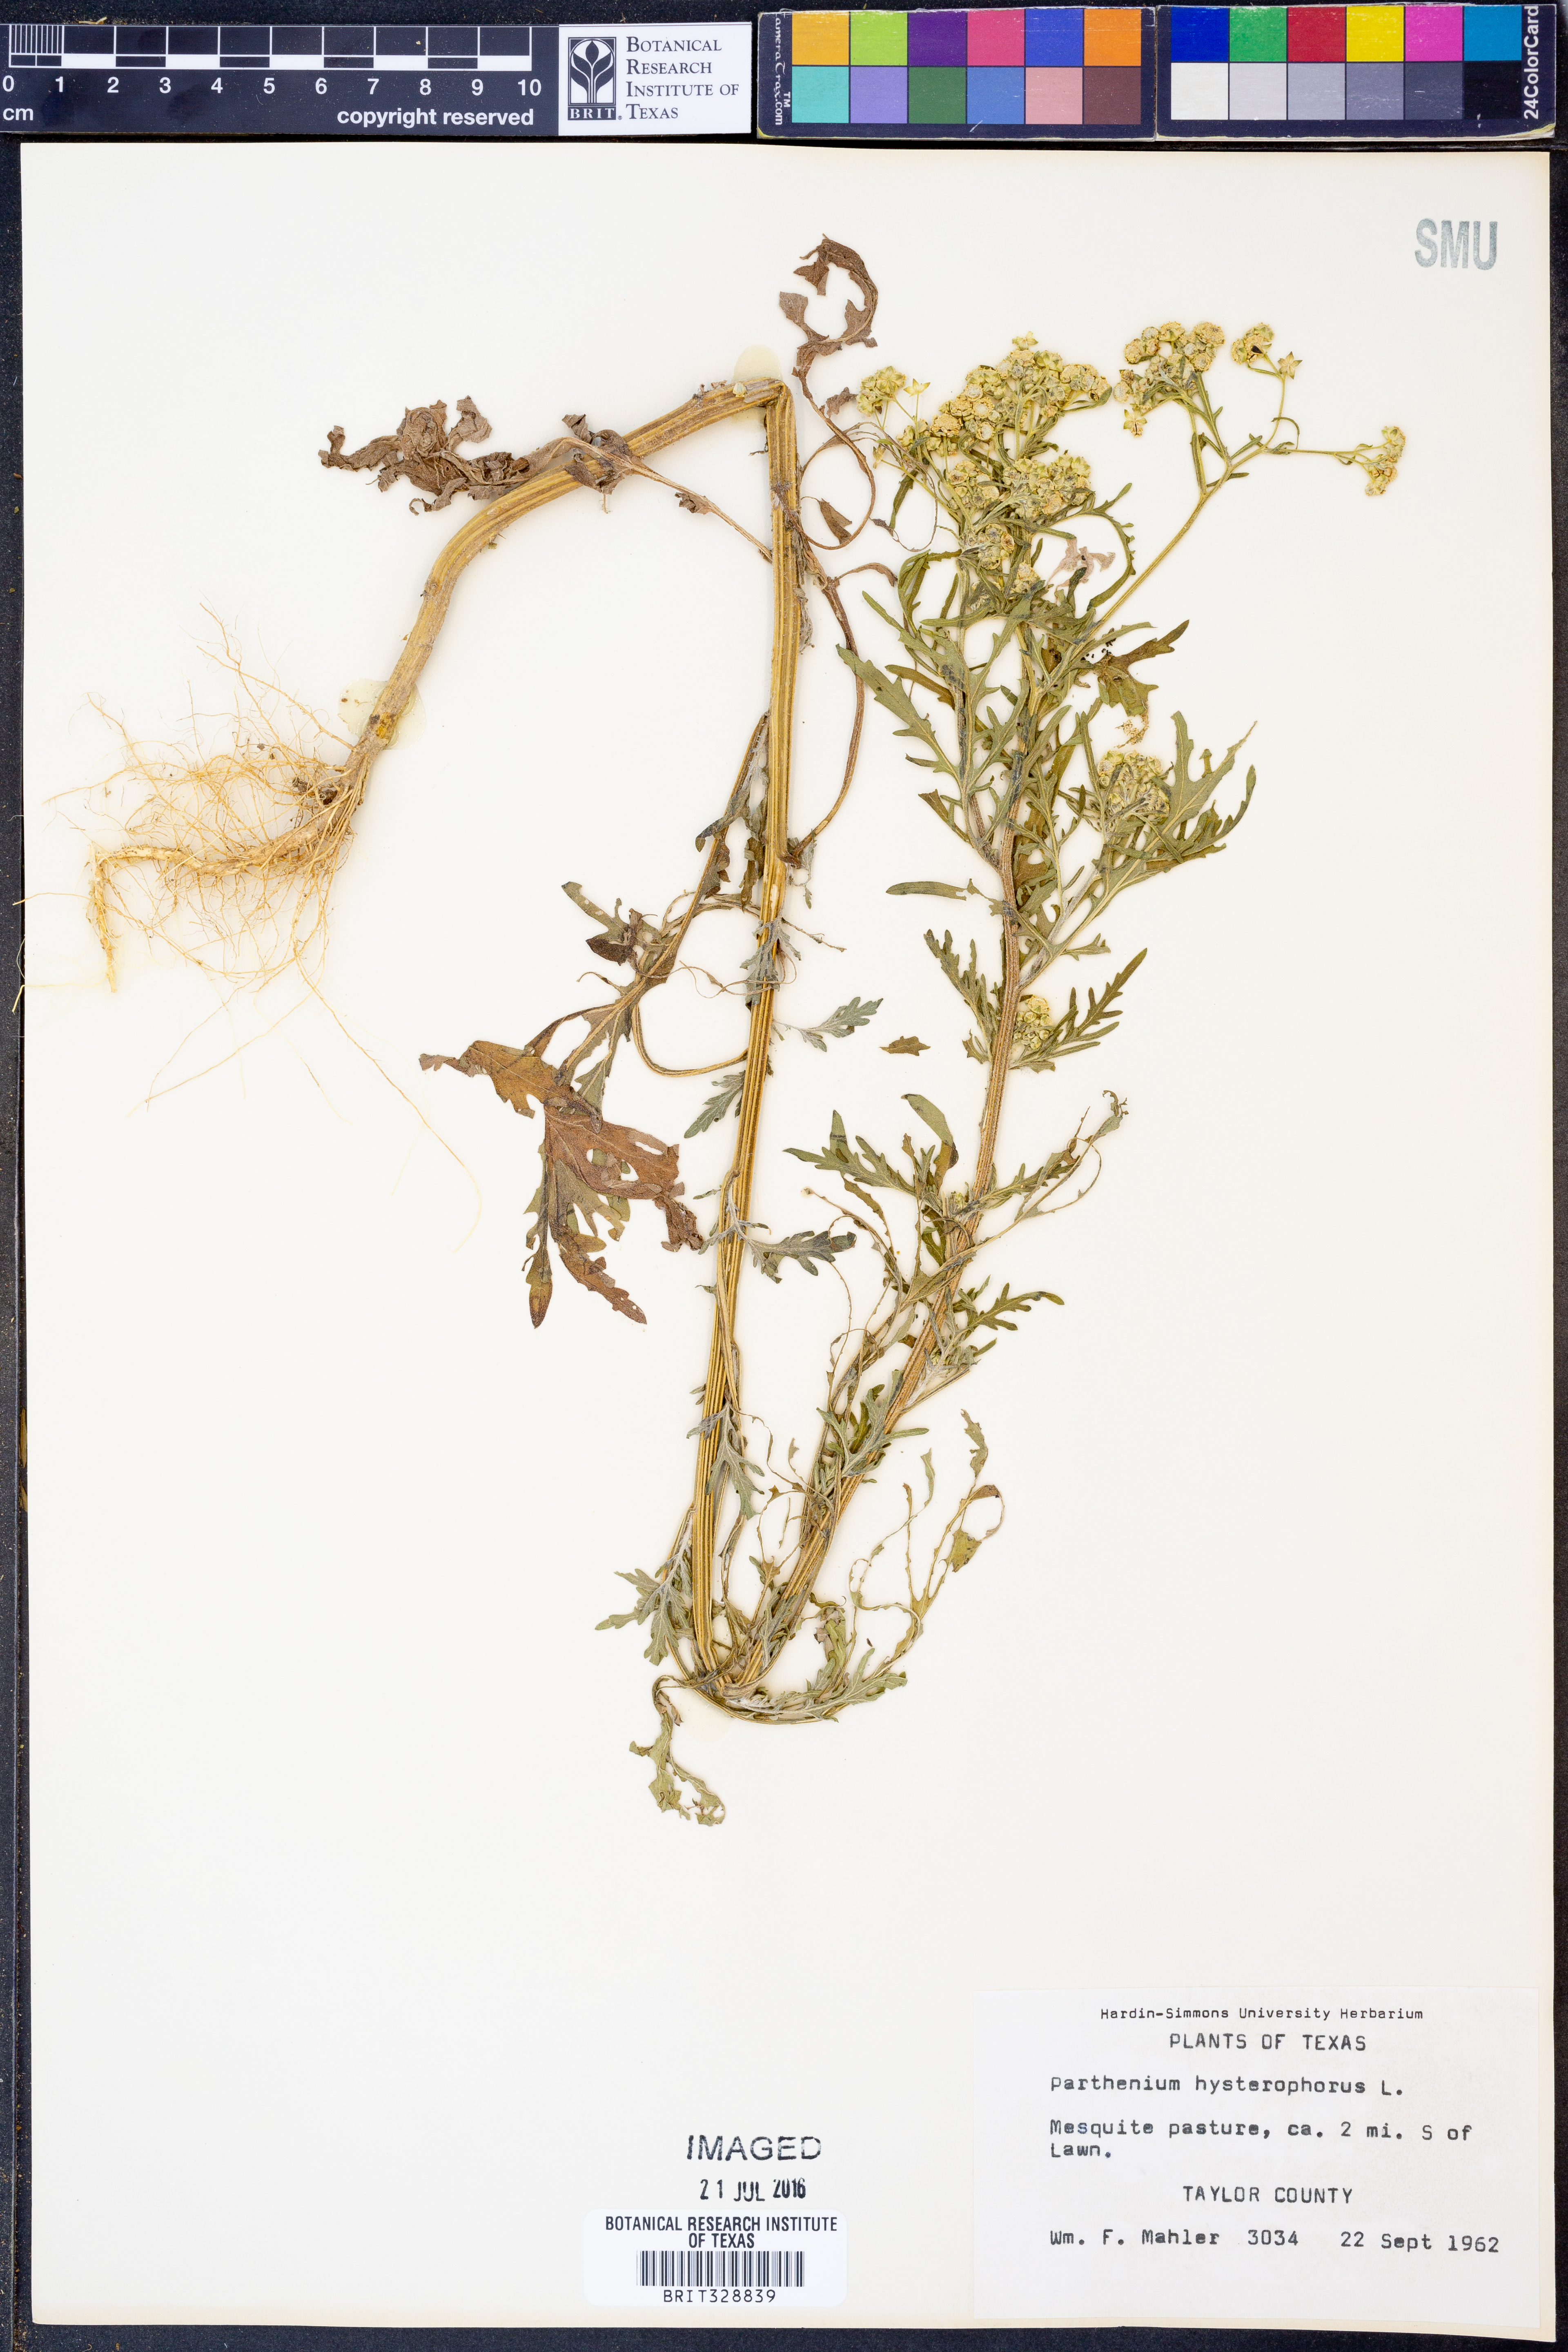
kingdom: Plantae
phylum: Tracheophyta
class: Magnoliopsida
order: Asterales
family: Asteraceae
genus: Parthenium
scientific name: Parthenium hysterophorus
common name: Santa maria feverfew
